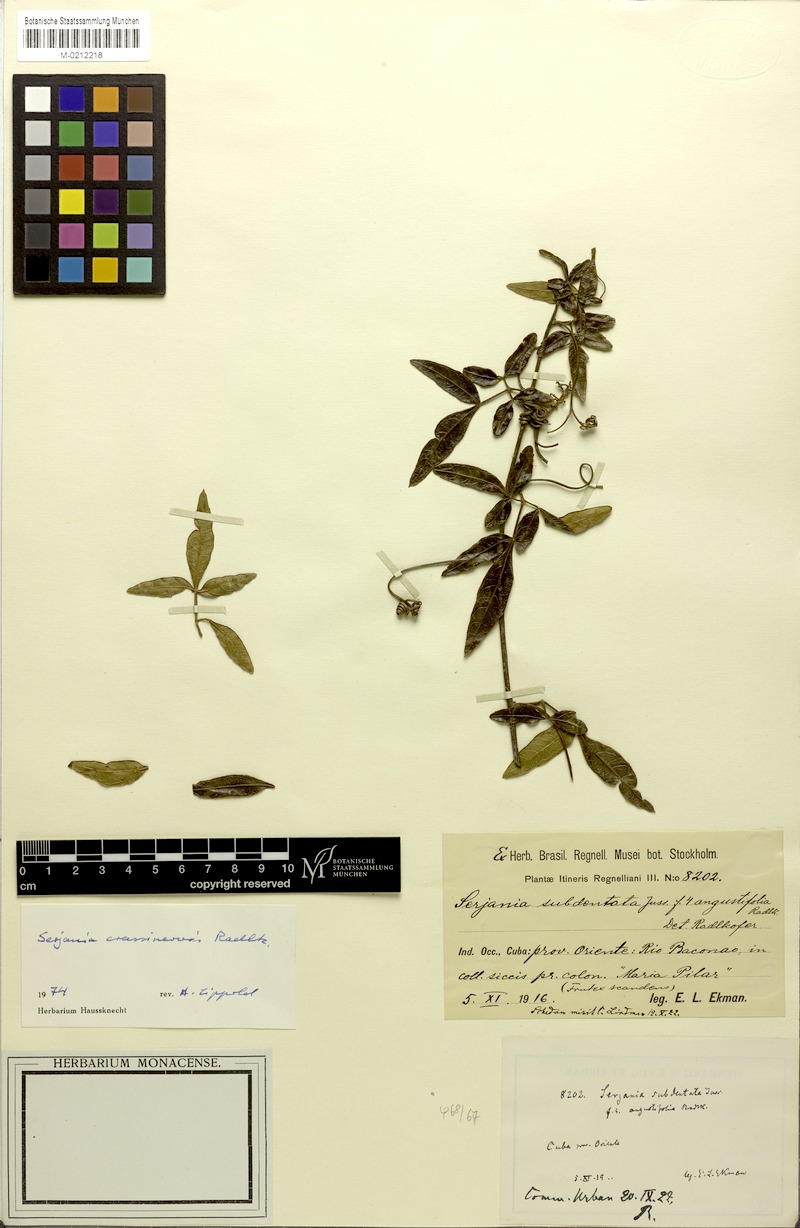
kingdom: Plantae
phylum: Tracheophyta
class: Magnoliopsida
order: Sapindales
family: Sapindaceae
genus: Serjania
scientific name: Serjania crassinervis
